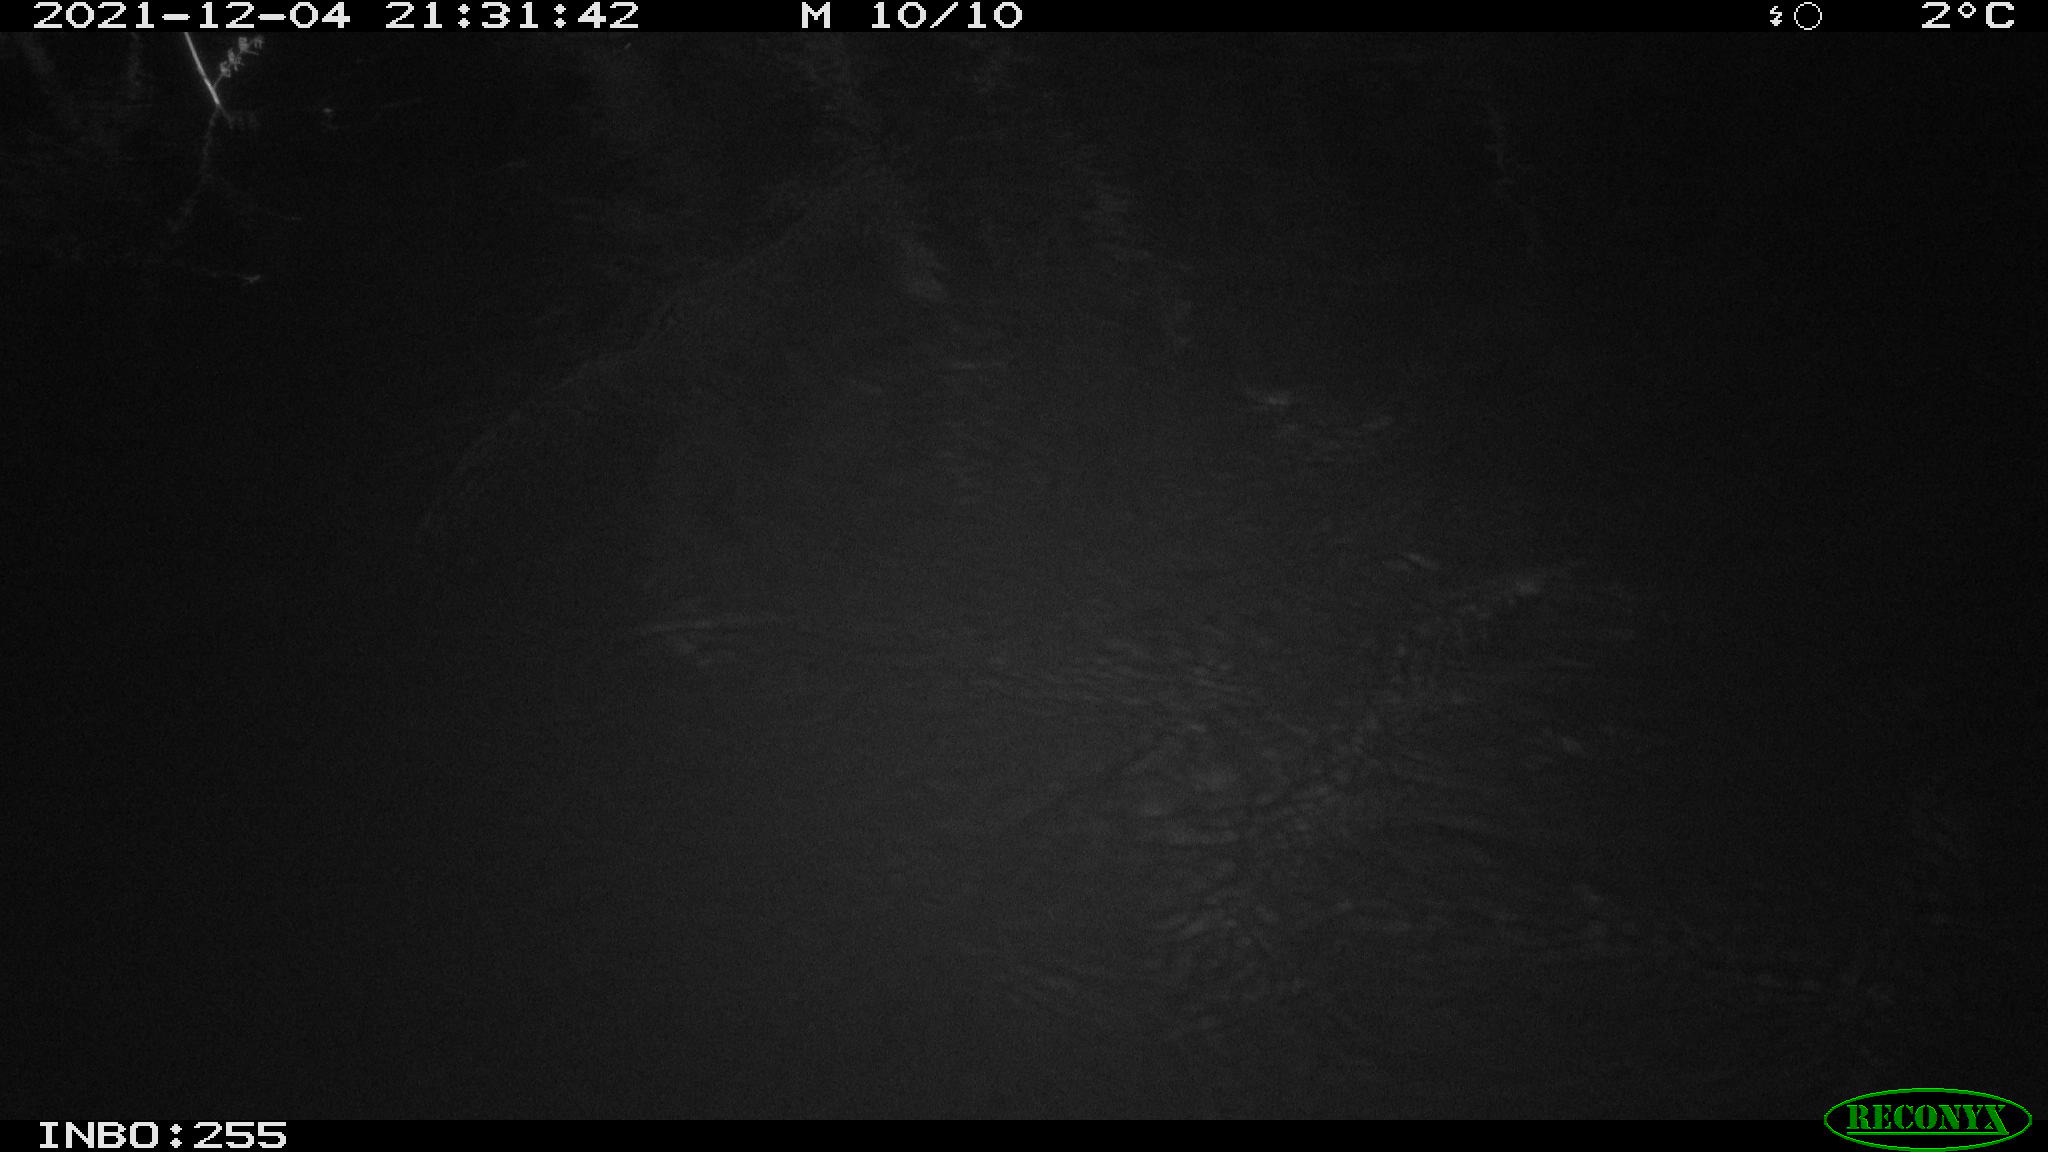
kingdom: Animalia
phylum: Chordata
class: Mammalia
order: Rodentia
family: Muridae
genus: Rattus
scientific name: Rattus norvegicus
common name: Brown rat
